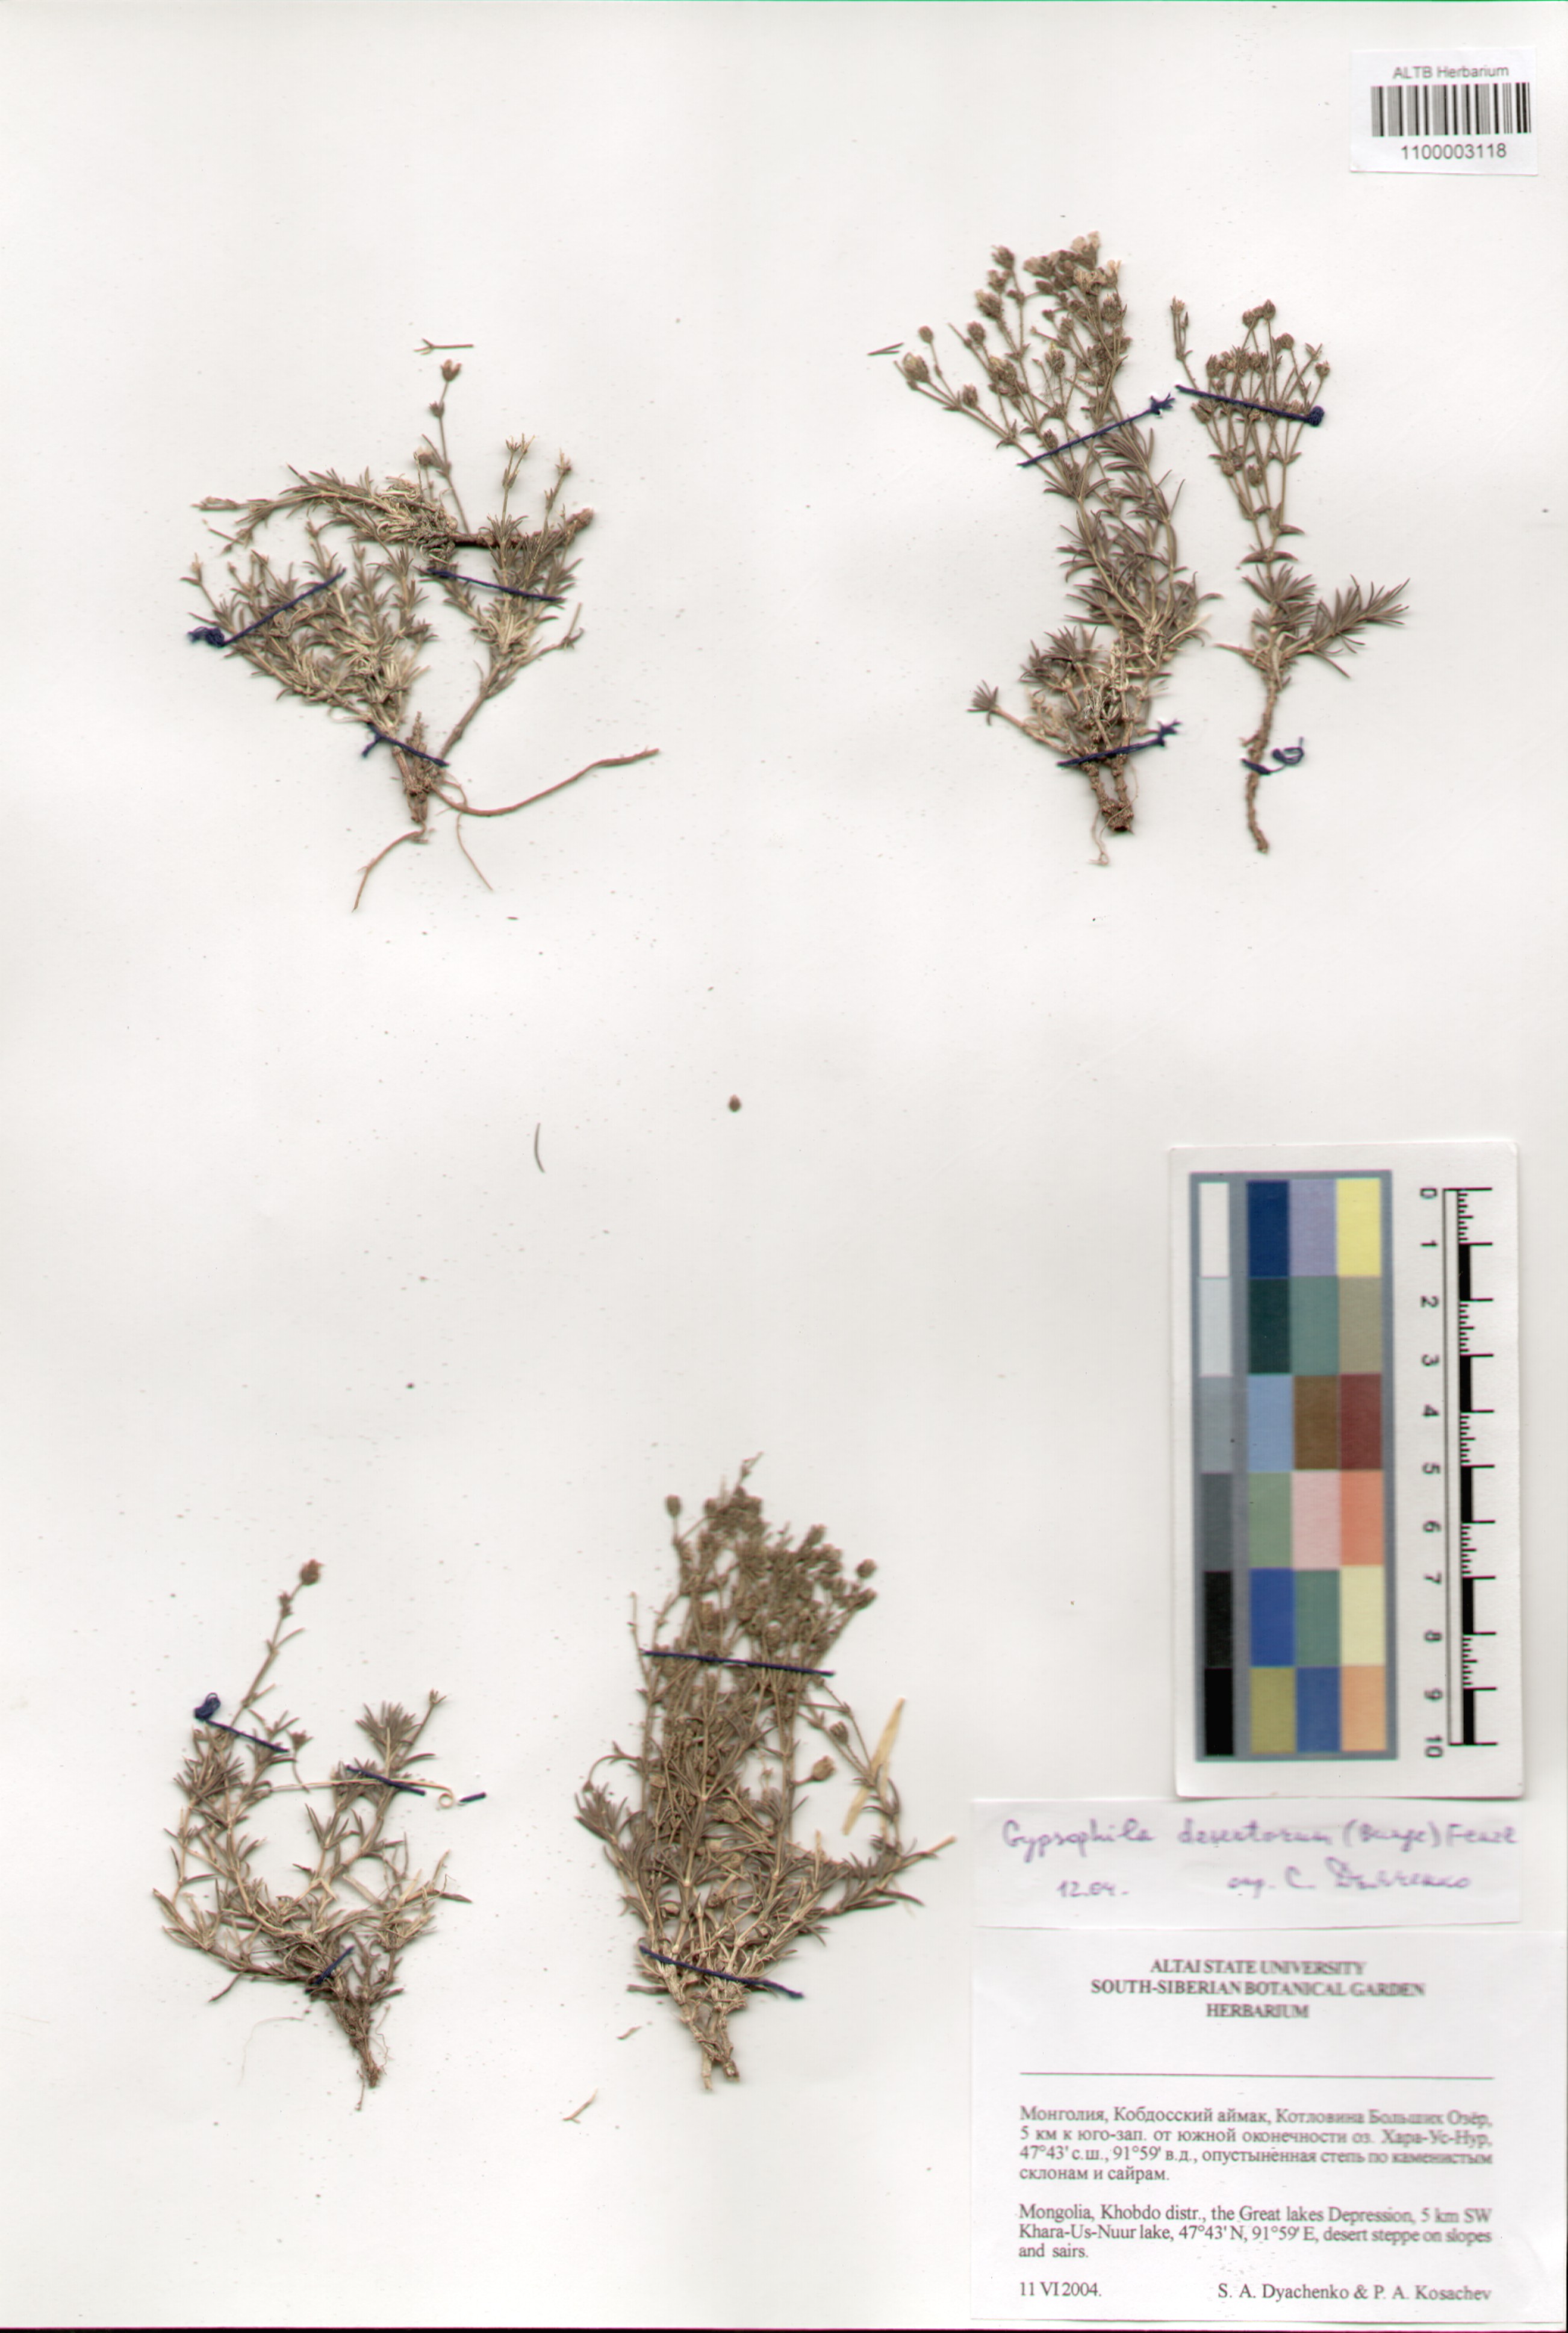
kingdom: Plantae
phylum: Tracheophyta
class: Magnoliopsida
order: Caryophyllales
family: Caryophyllaceae
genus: Heterochroa
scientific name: Heterochroa desertorum
